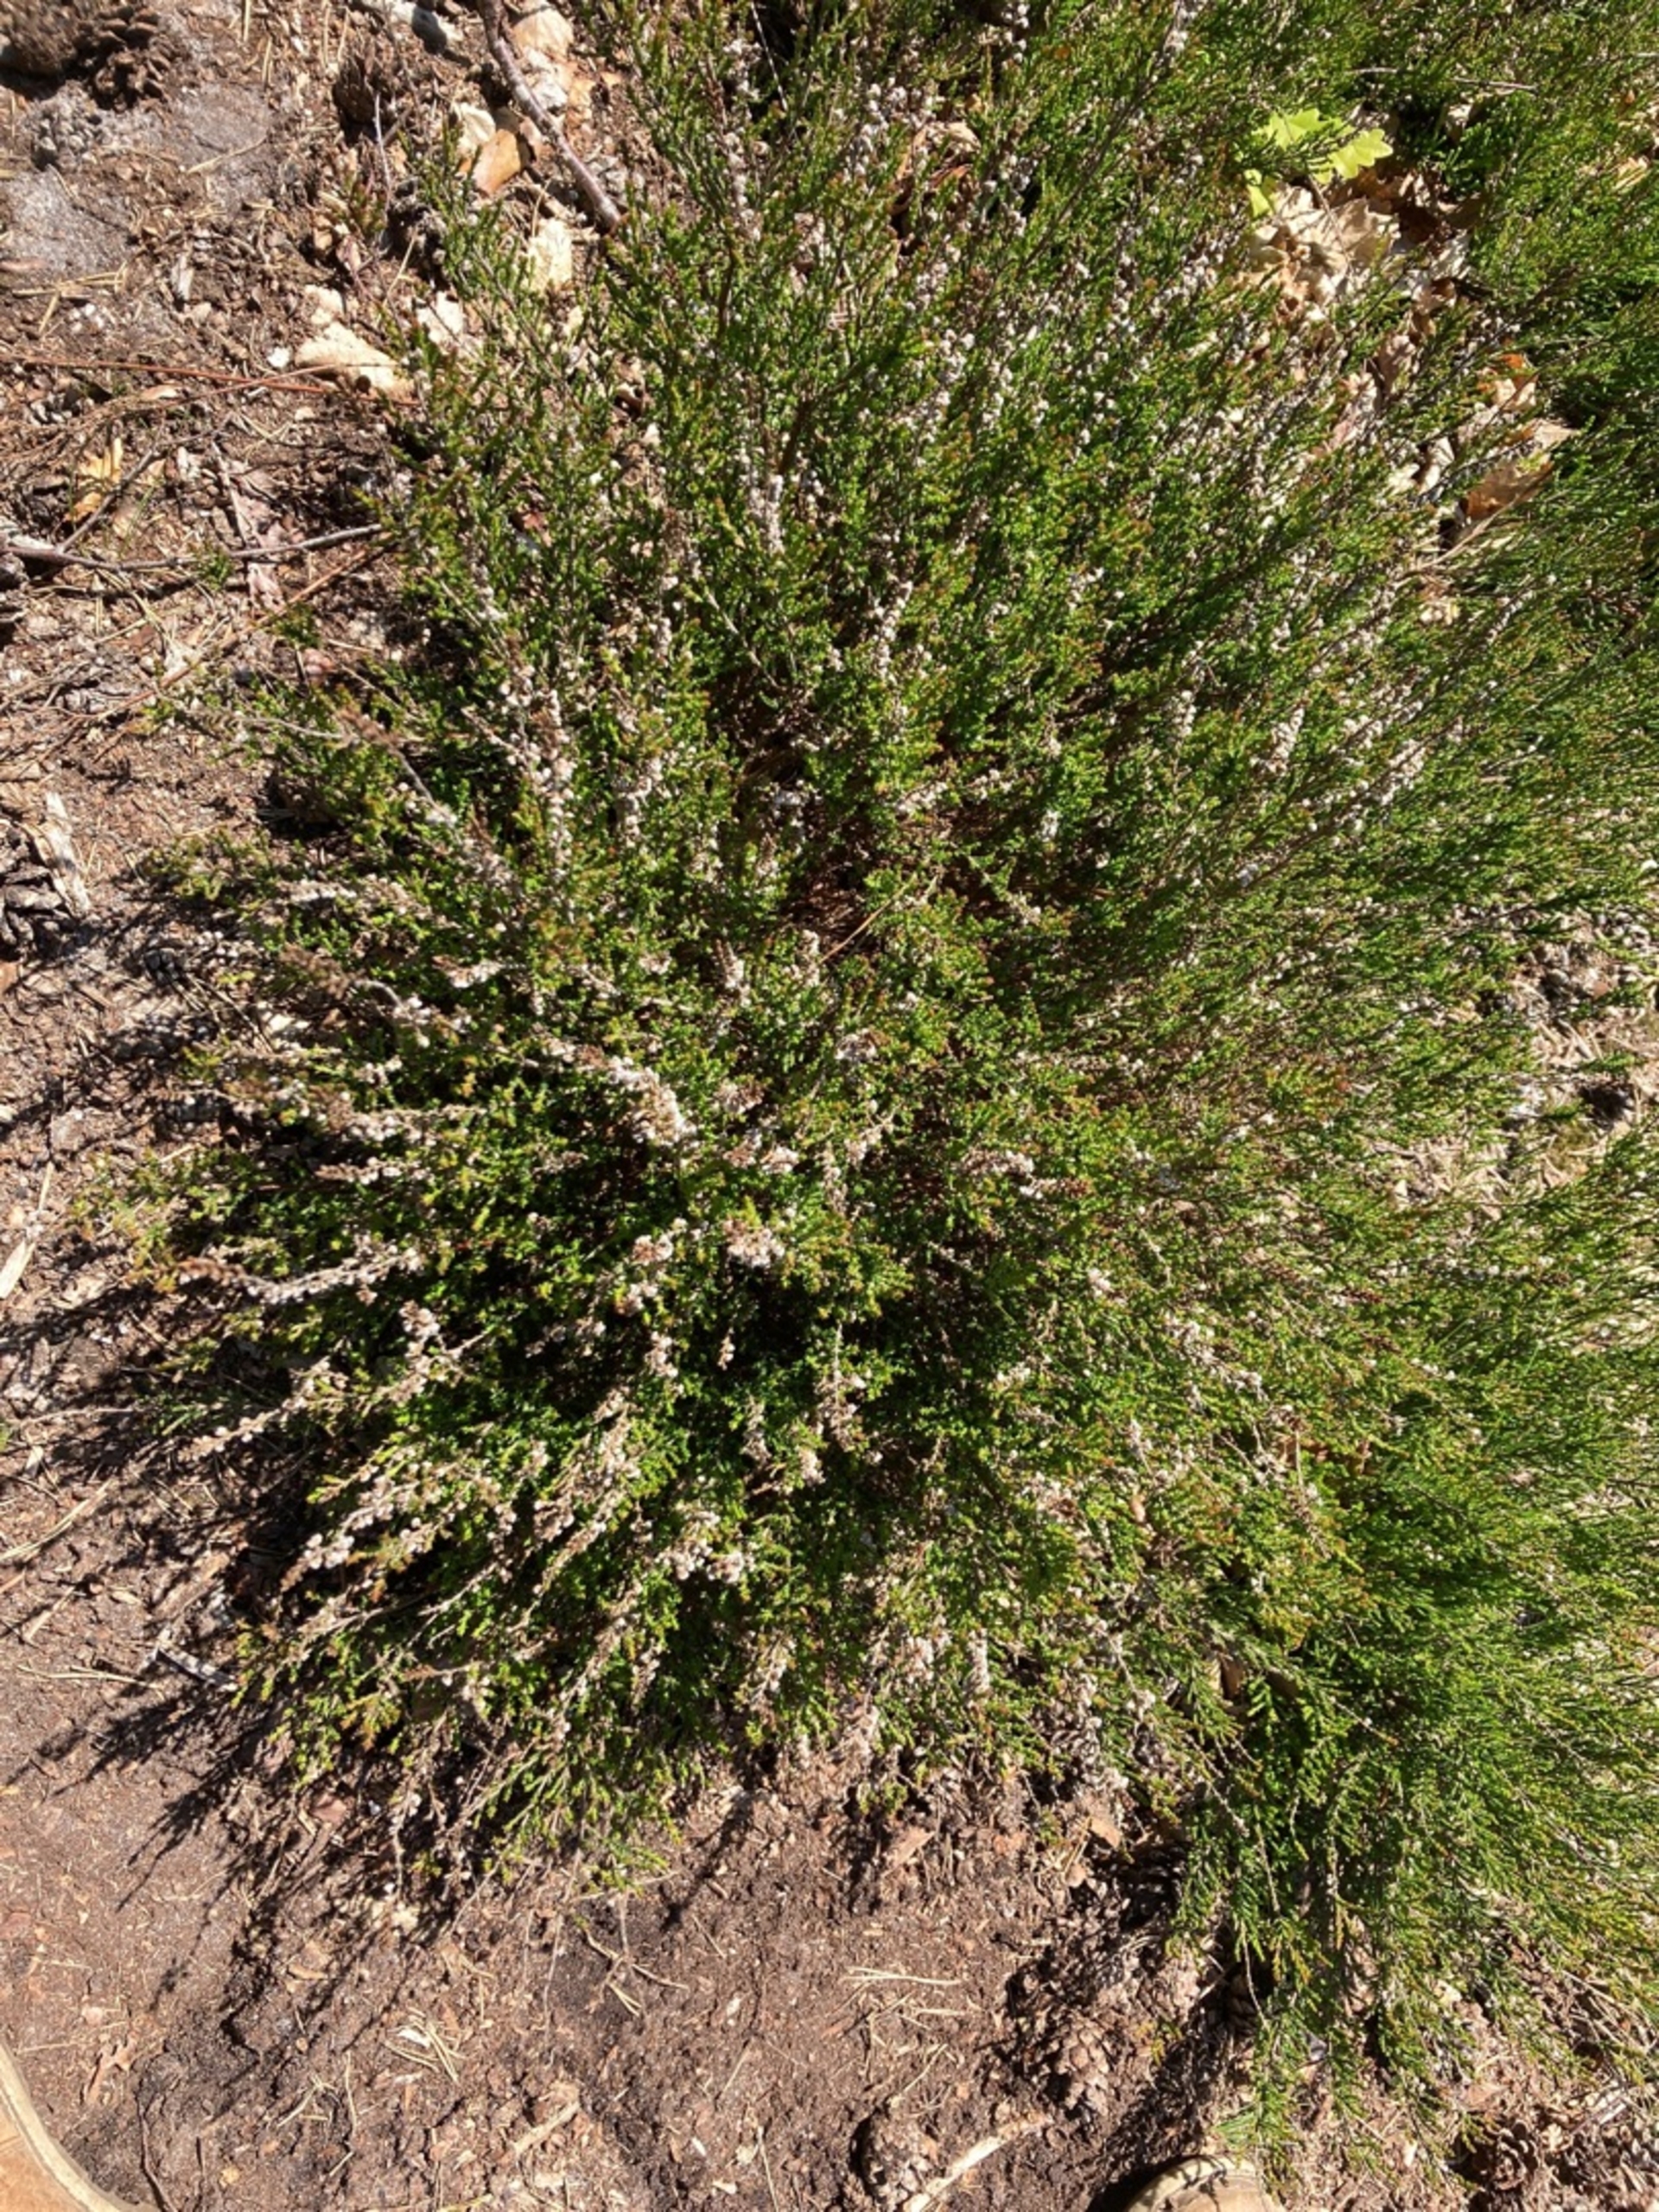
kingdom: Plantae
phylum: Tracheophyta
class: Magnoliopsida
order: Ericales
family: Ericaceae
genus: Calluna
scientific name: Calluna vulgaris
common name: Hedelyng
